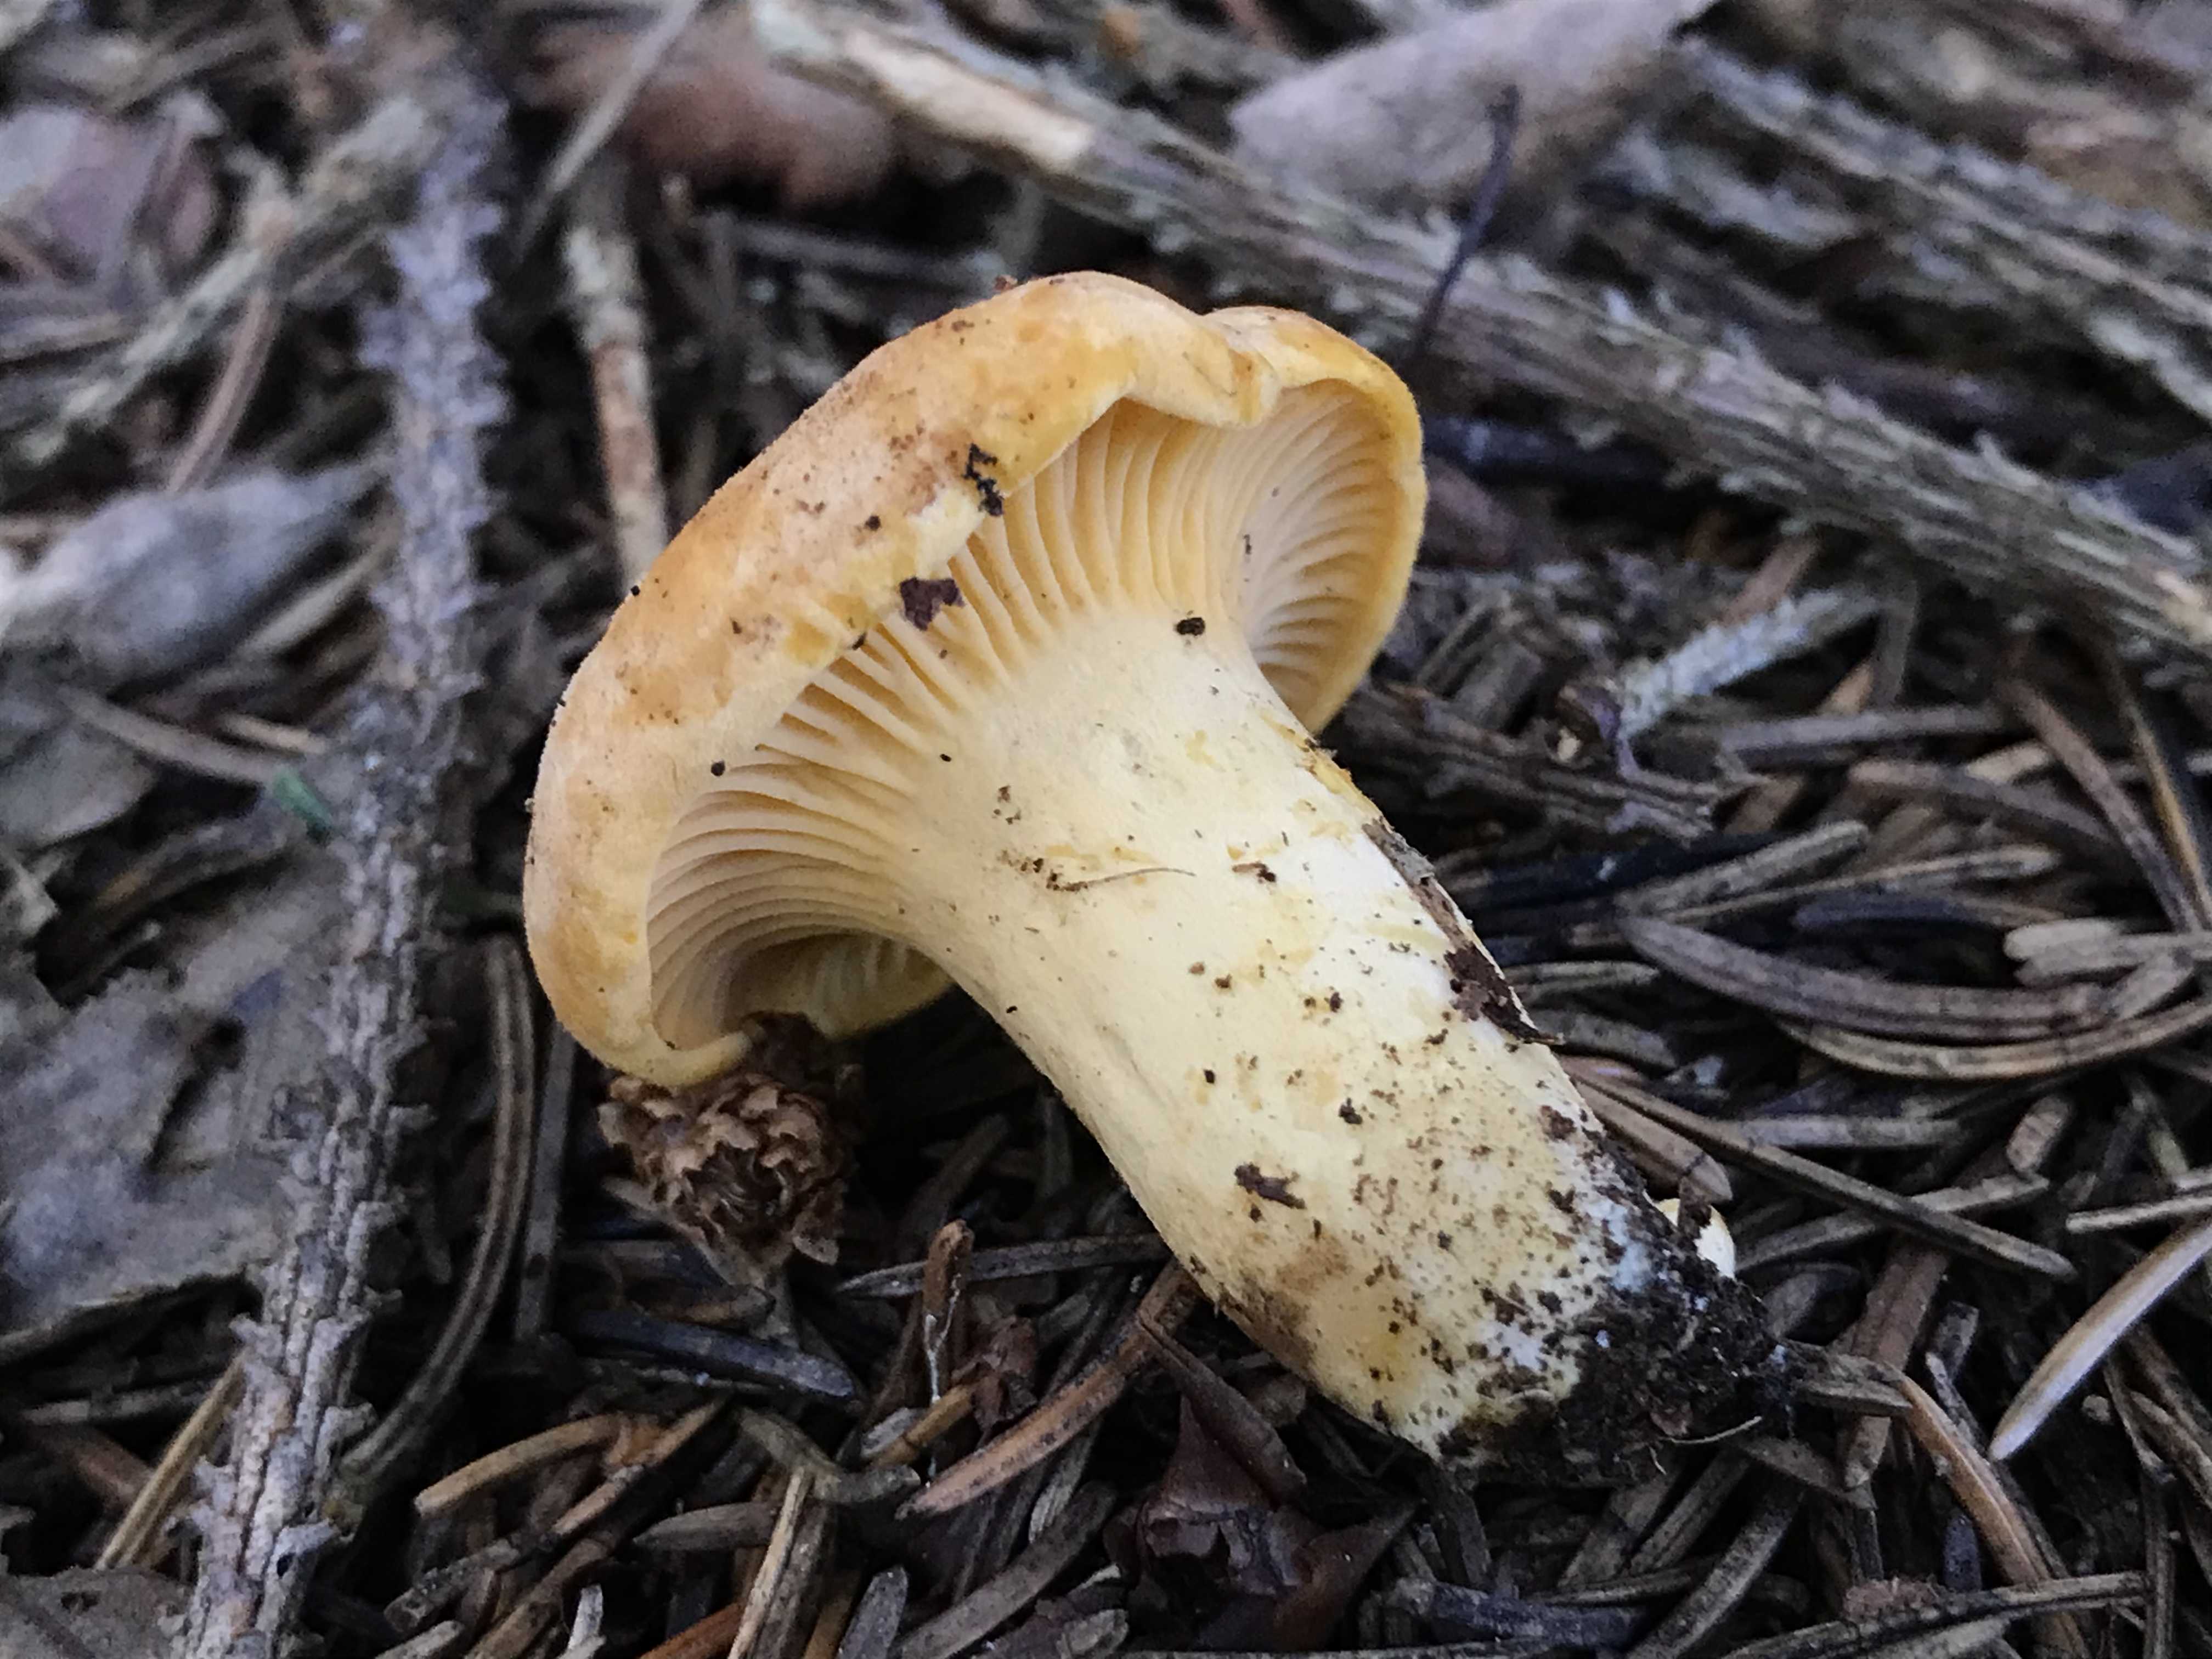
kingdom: Fungi
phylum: Basidiomycota
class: Agaricomycetes
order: Cantharellales
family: Hydnaceae
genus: Cantharellus
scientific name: Cantharellus pallens
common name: bleg kantarel
